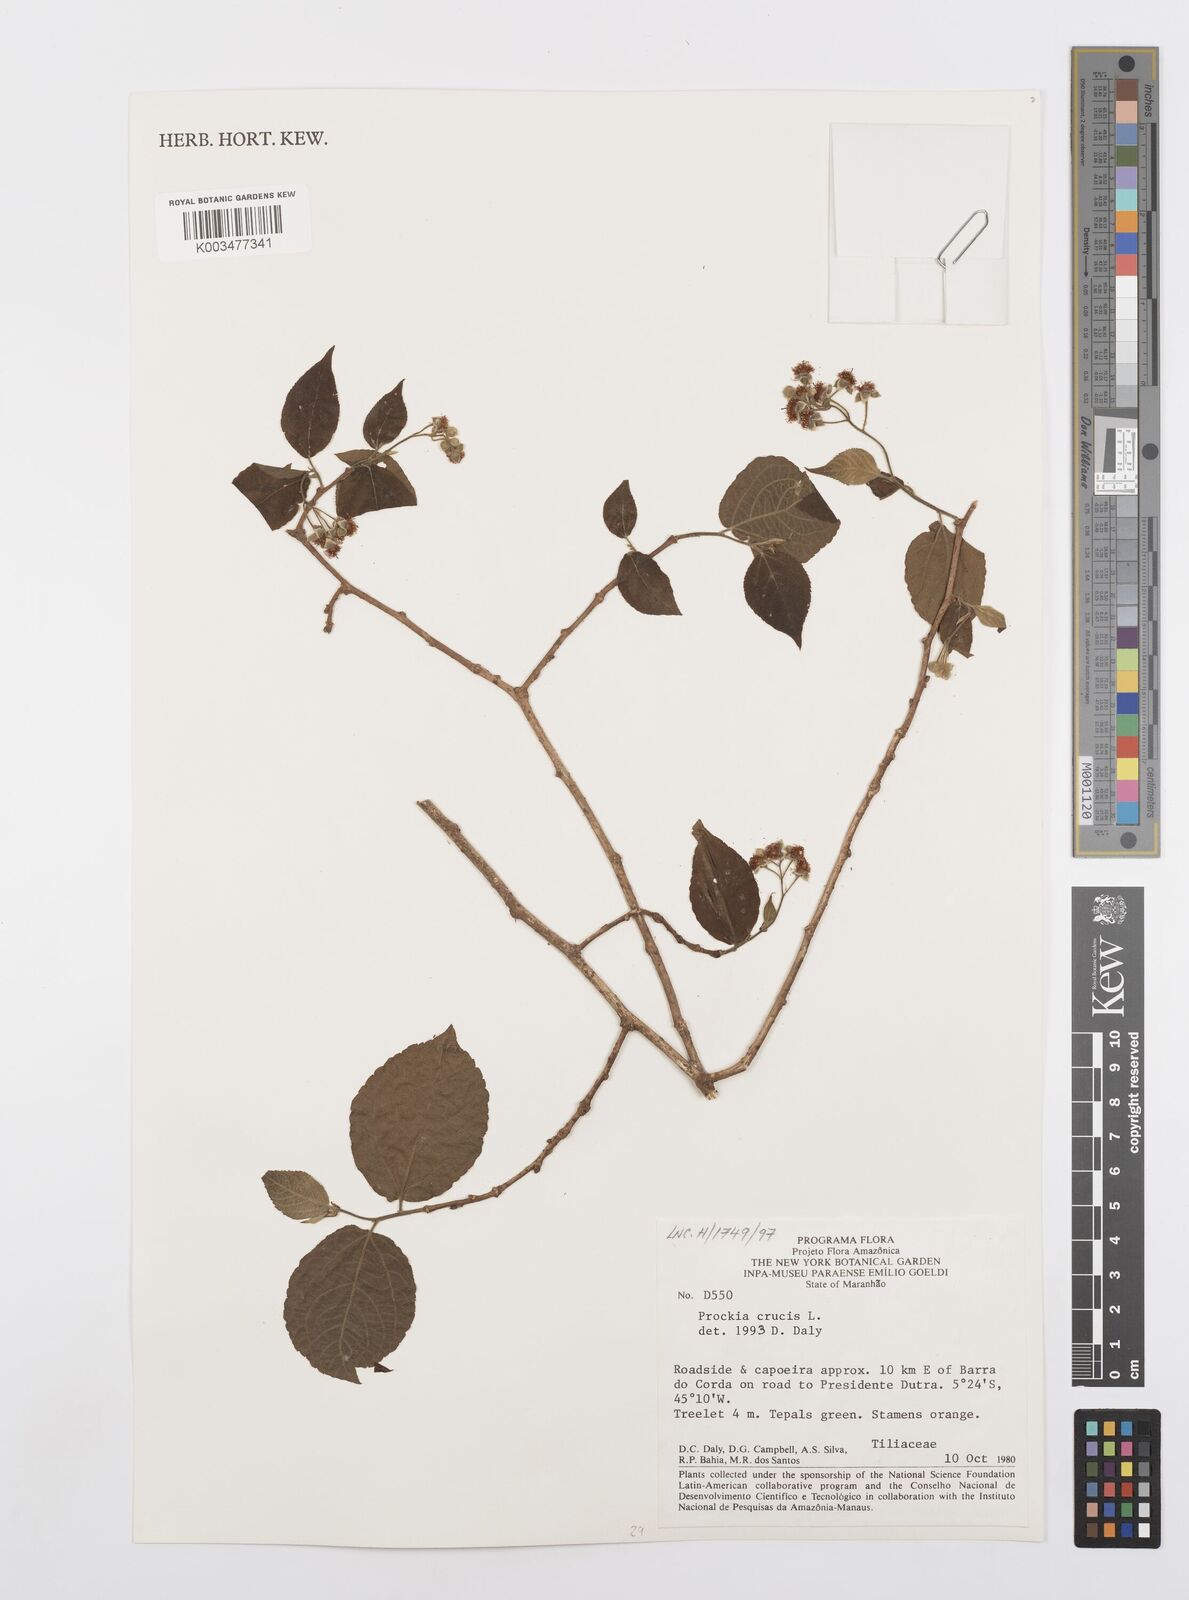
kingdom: Plantae
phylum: Tracheophyta
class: Magnoliopsida
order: Malpighiales
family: Salicaceae
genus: Prockia
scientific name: Prockia crucis
